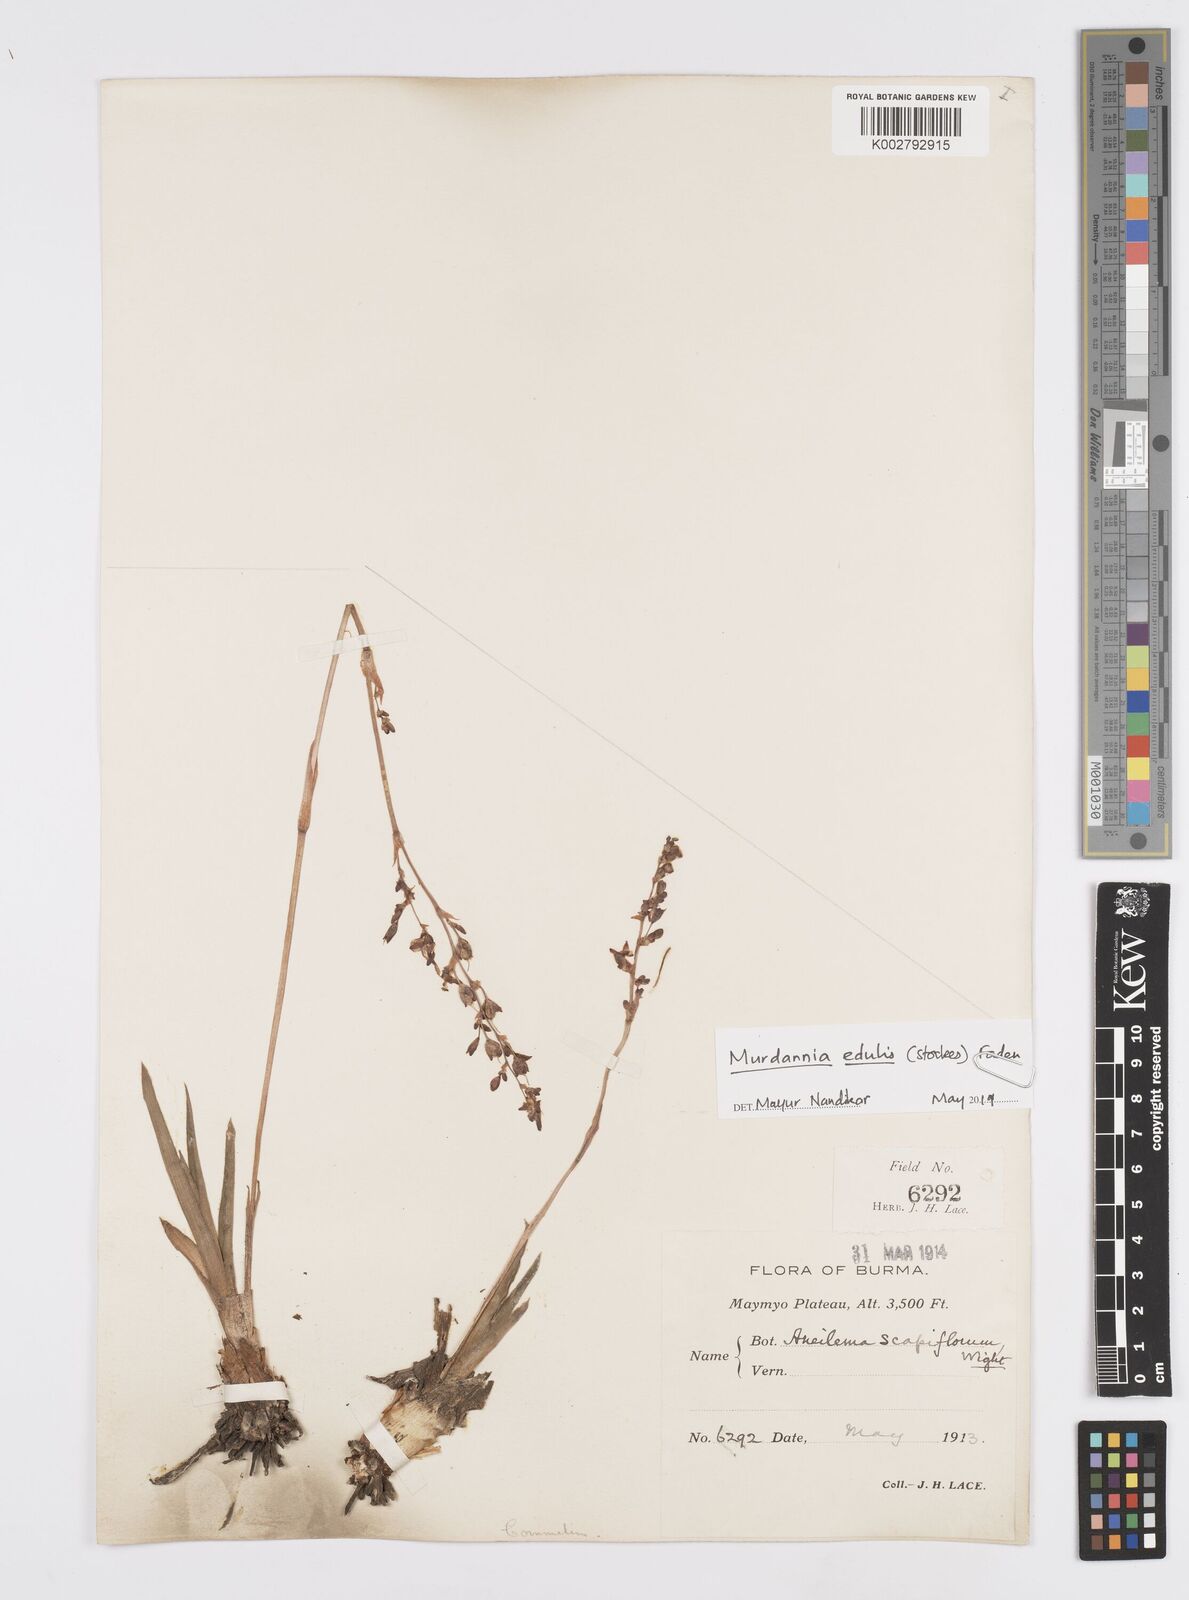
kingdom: Plantae
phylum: Tracheophyta
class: Liliopsida
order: Commelinales
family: Commelinaceae
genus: Murdannia
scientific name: Murdannia edulis
